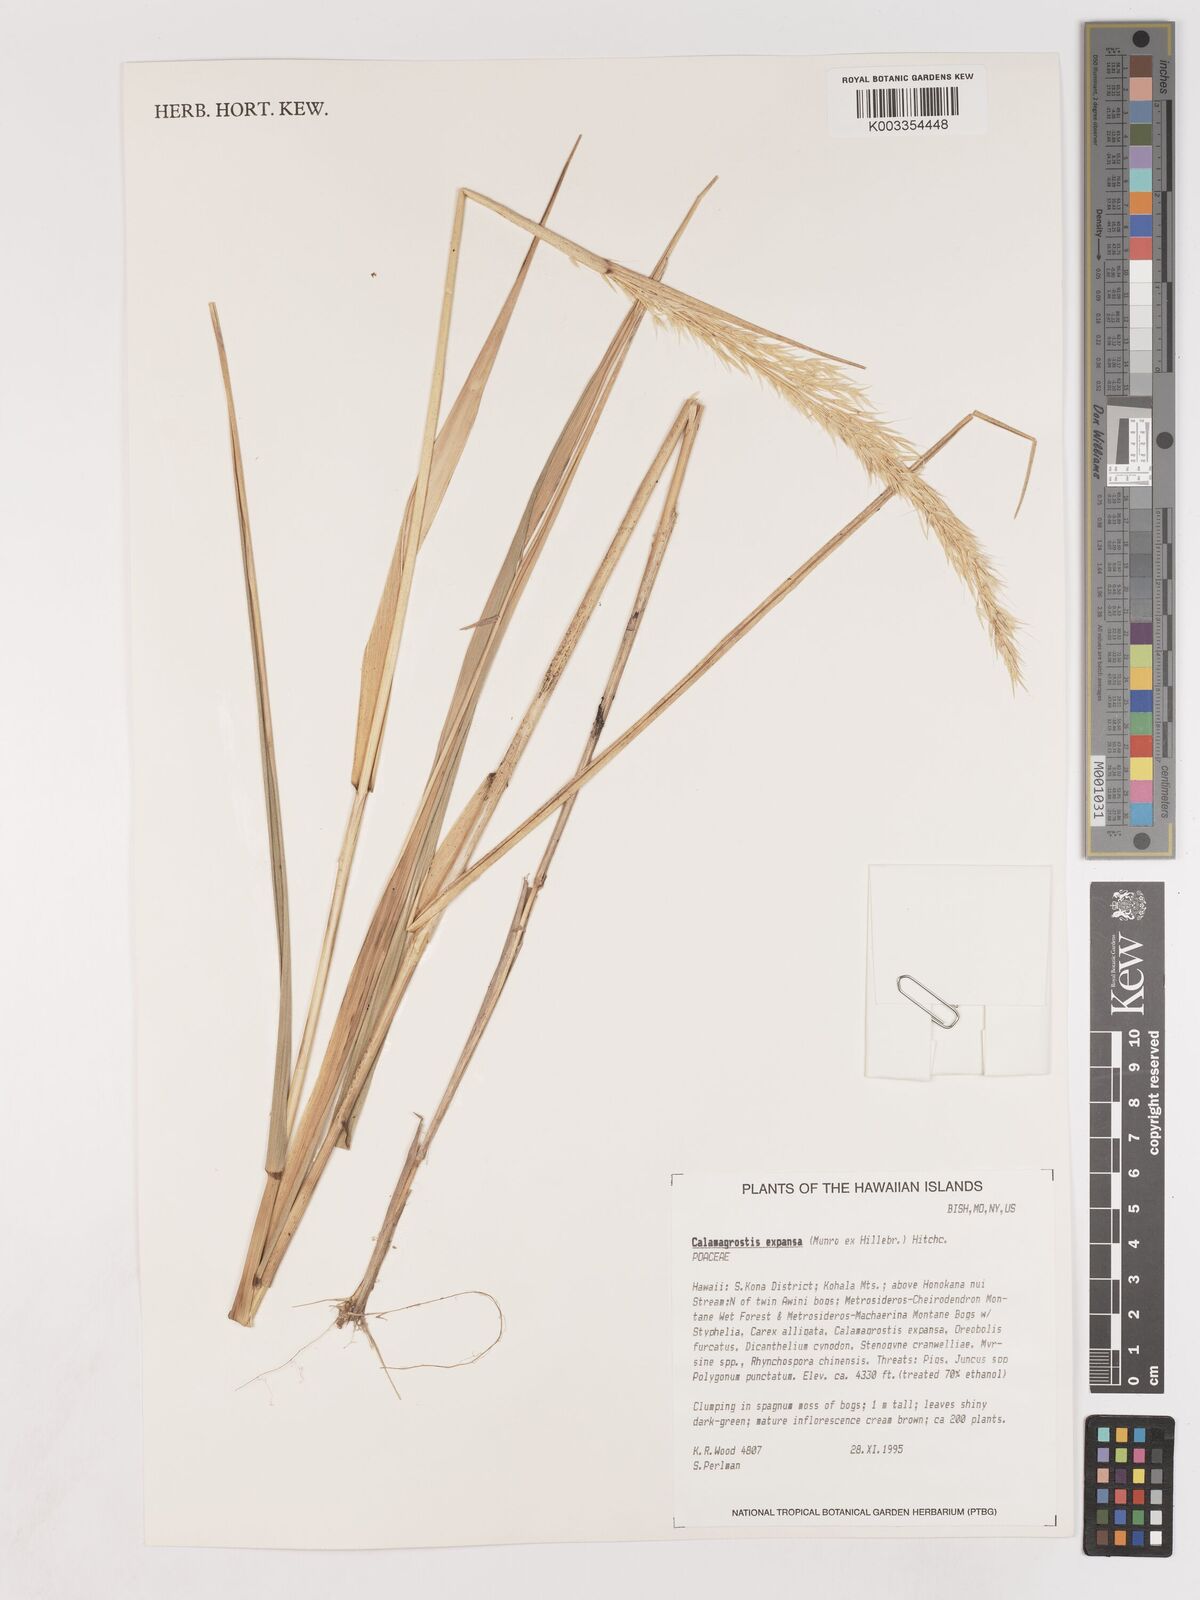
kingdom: Plantae
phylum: Tracheophyta
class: Liliopsida
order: Poales
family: Poaceae
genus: Calamagrostis
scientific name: Calamagrostis expansa
